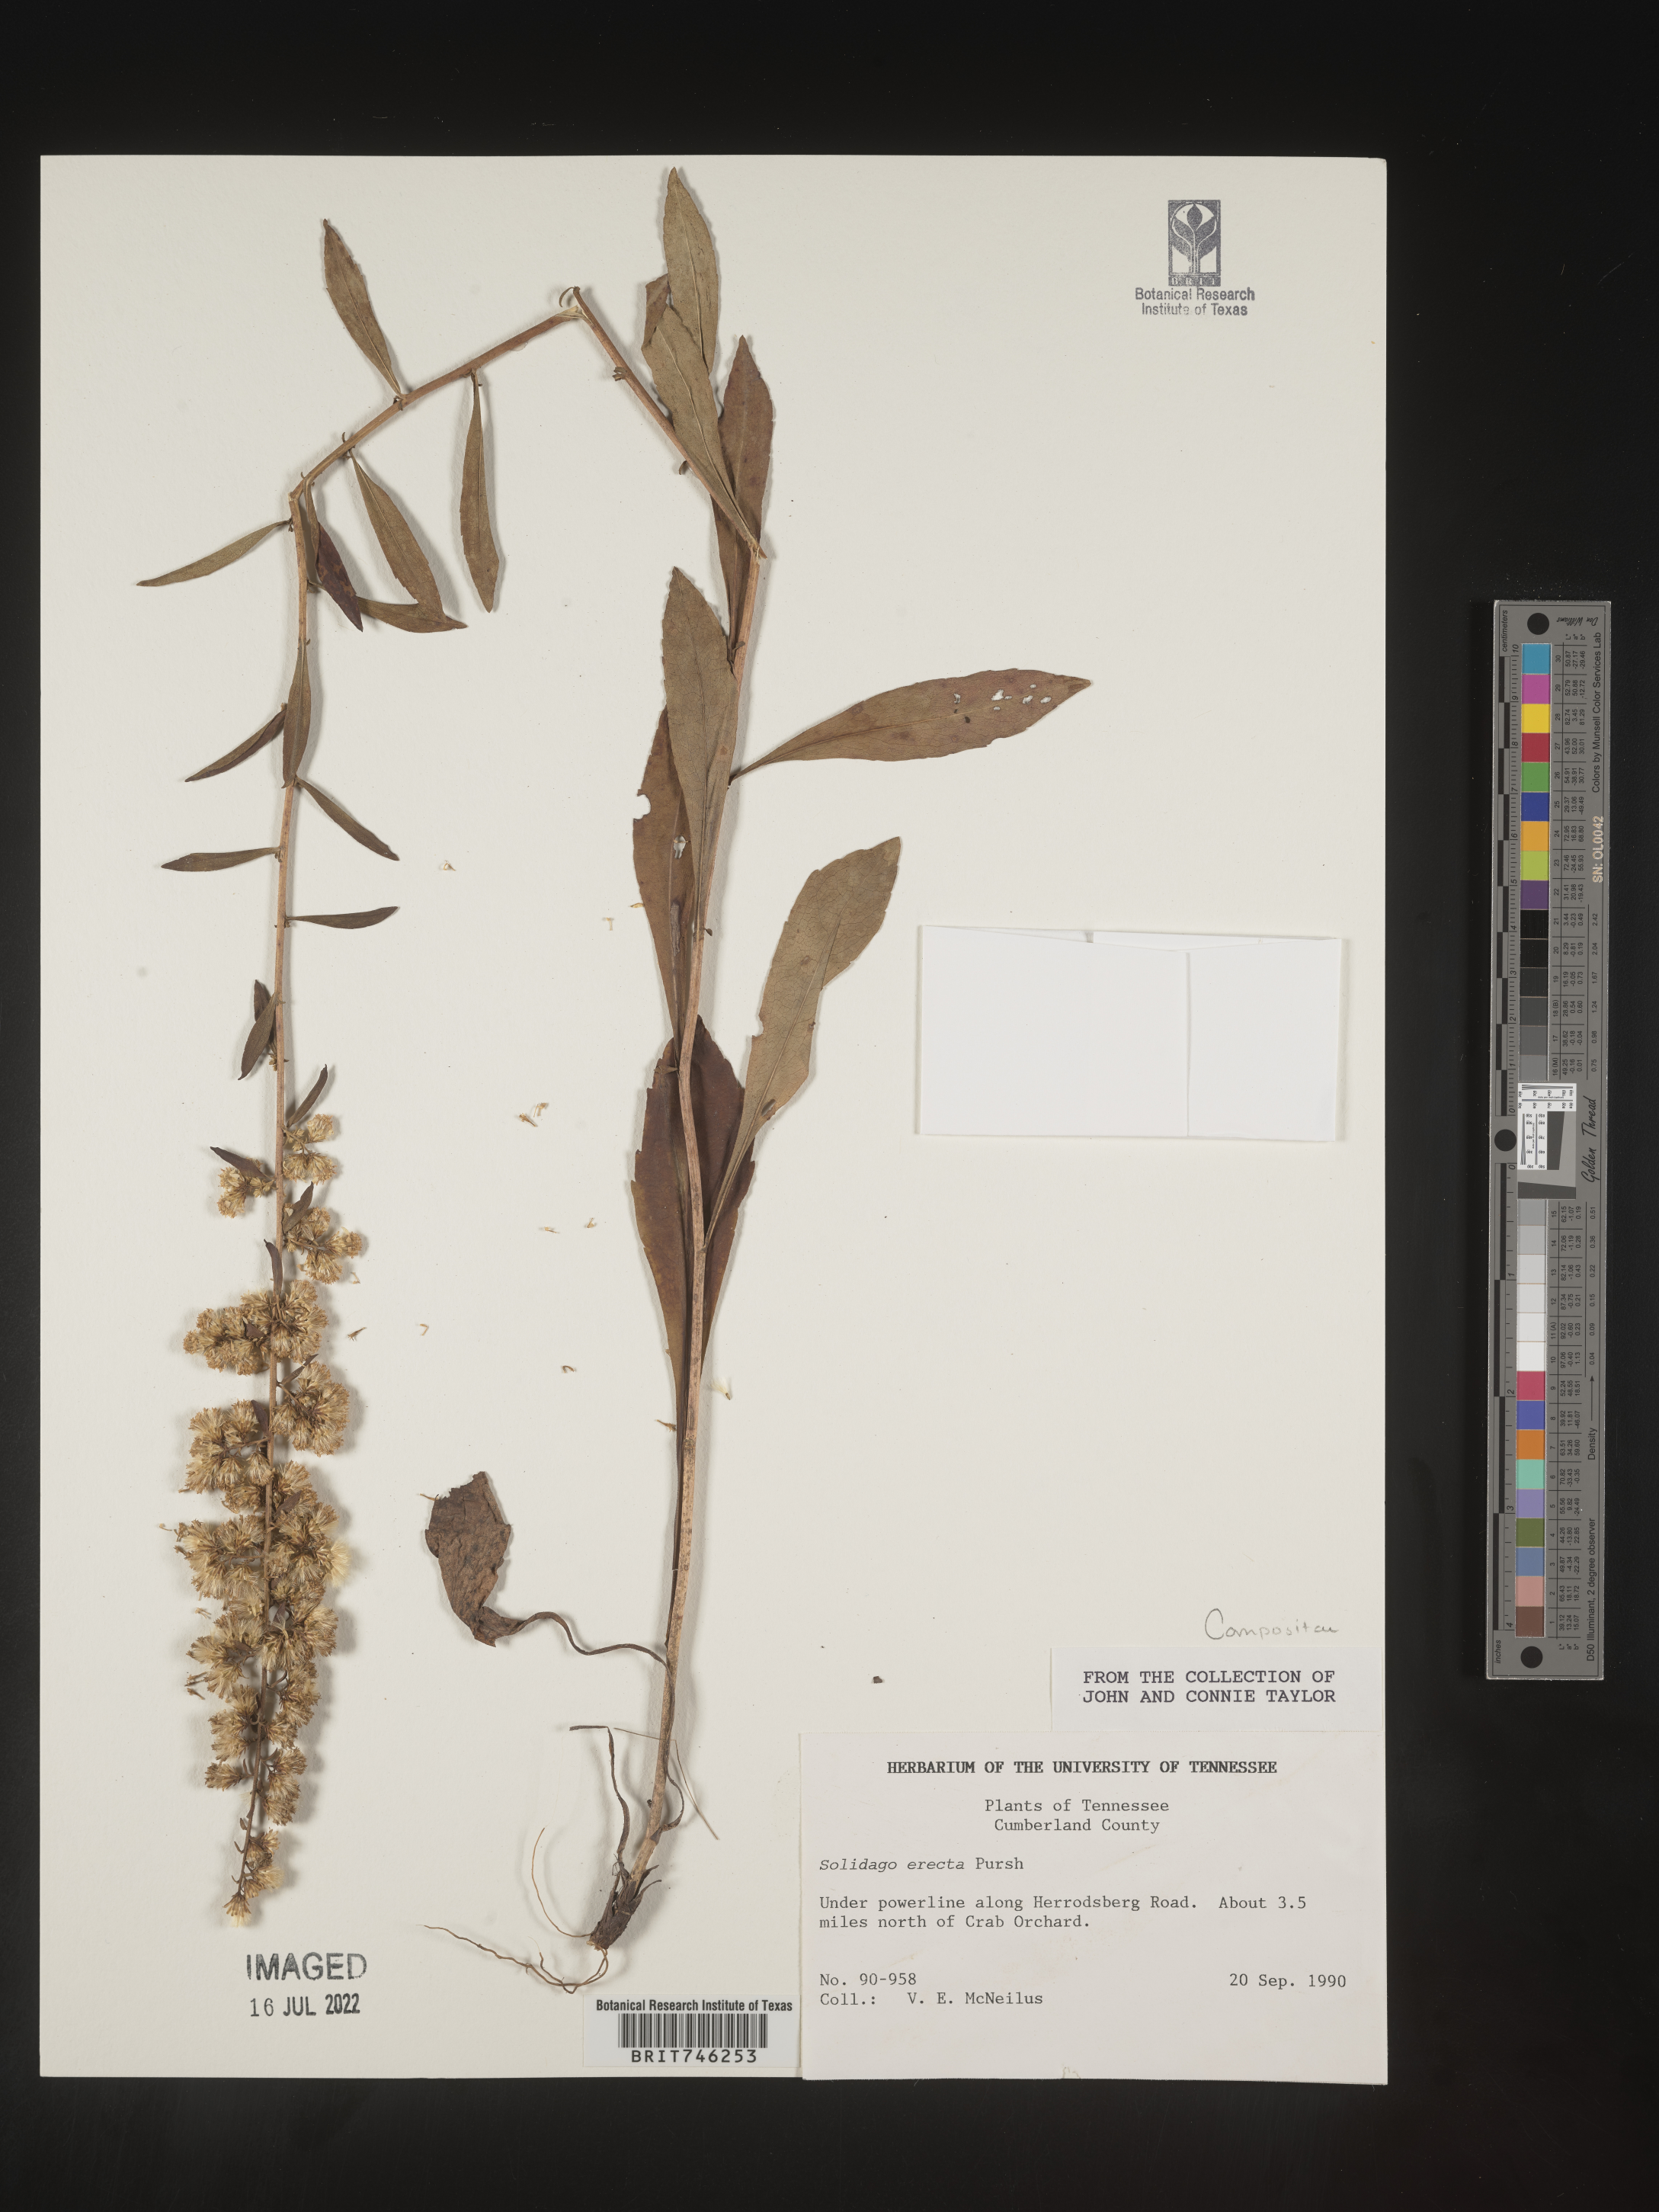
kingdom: Plantae
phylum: Tracheophyta
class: Magnoliopsida
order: Asterales
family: Asteraceae
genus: Solidago
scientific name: Solidago erecta
